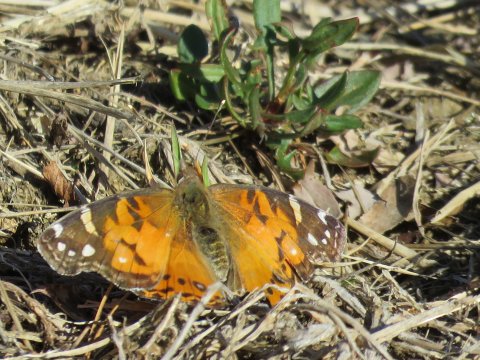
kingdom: Animalia
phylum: Arthropoda
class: Insecta
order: Lepidoptera
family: Nymphalidae
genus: Vanessa
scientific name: Vanessa virginiensis
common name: American Lady
